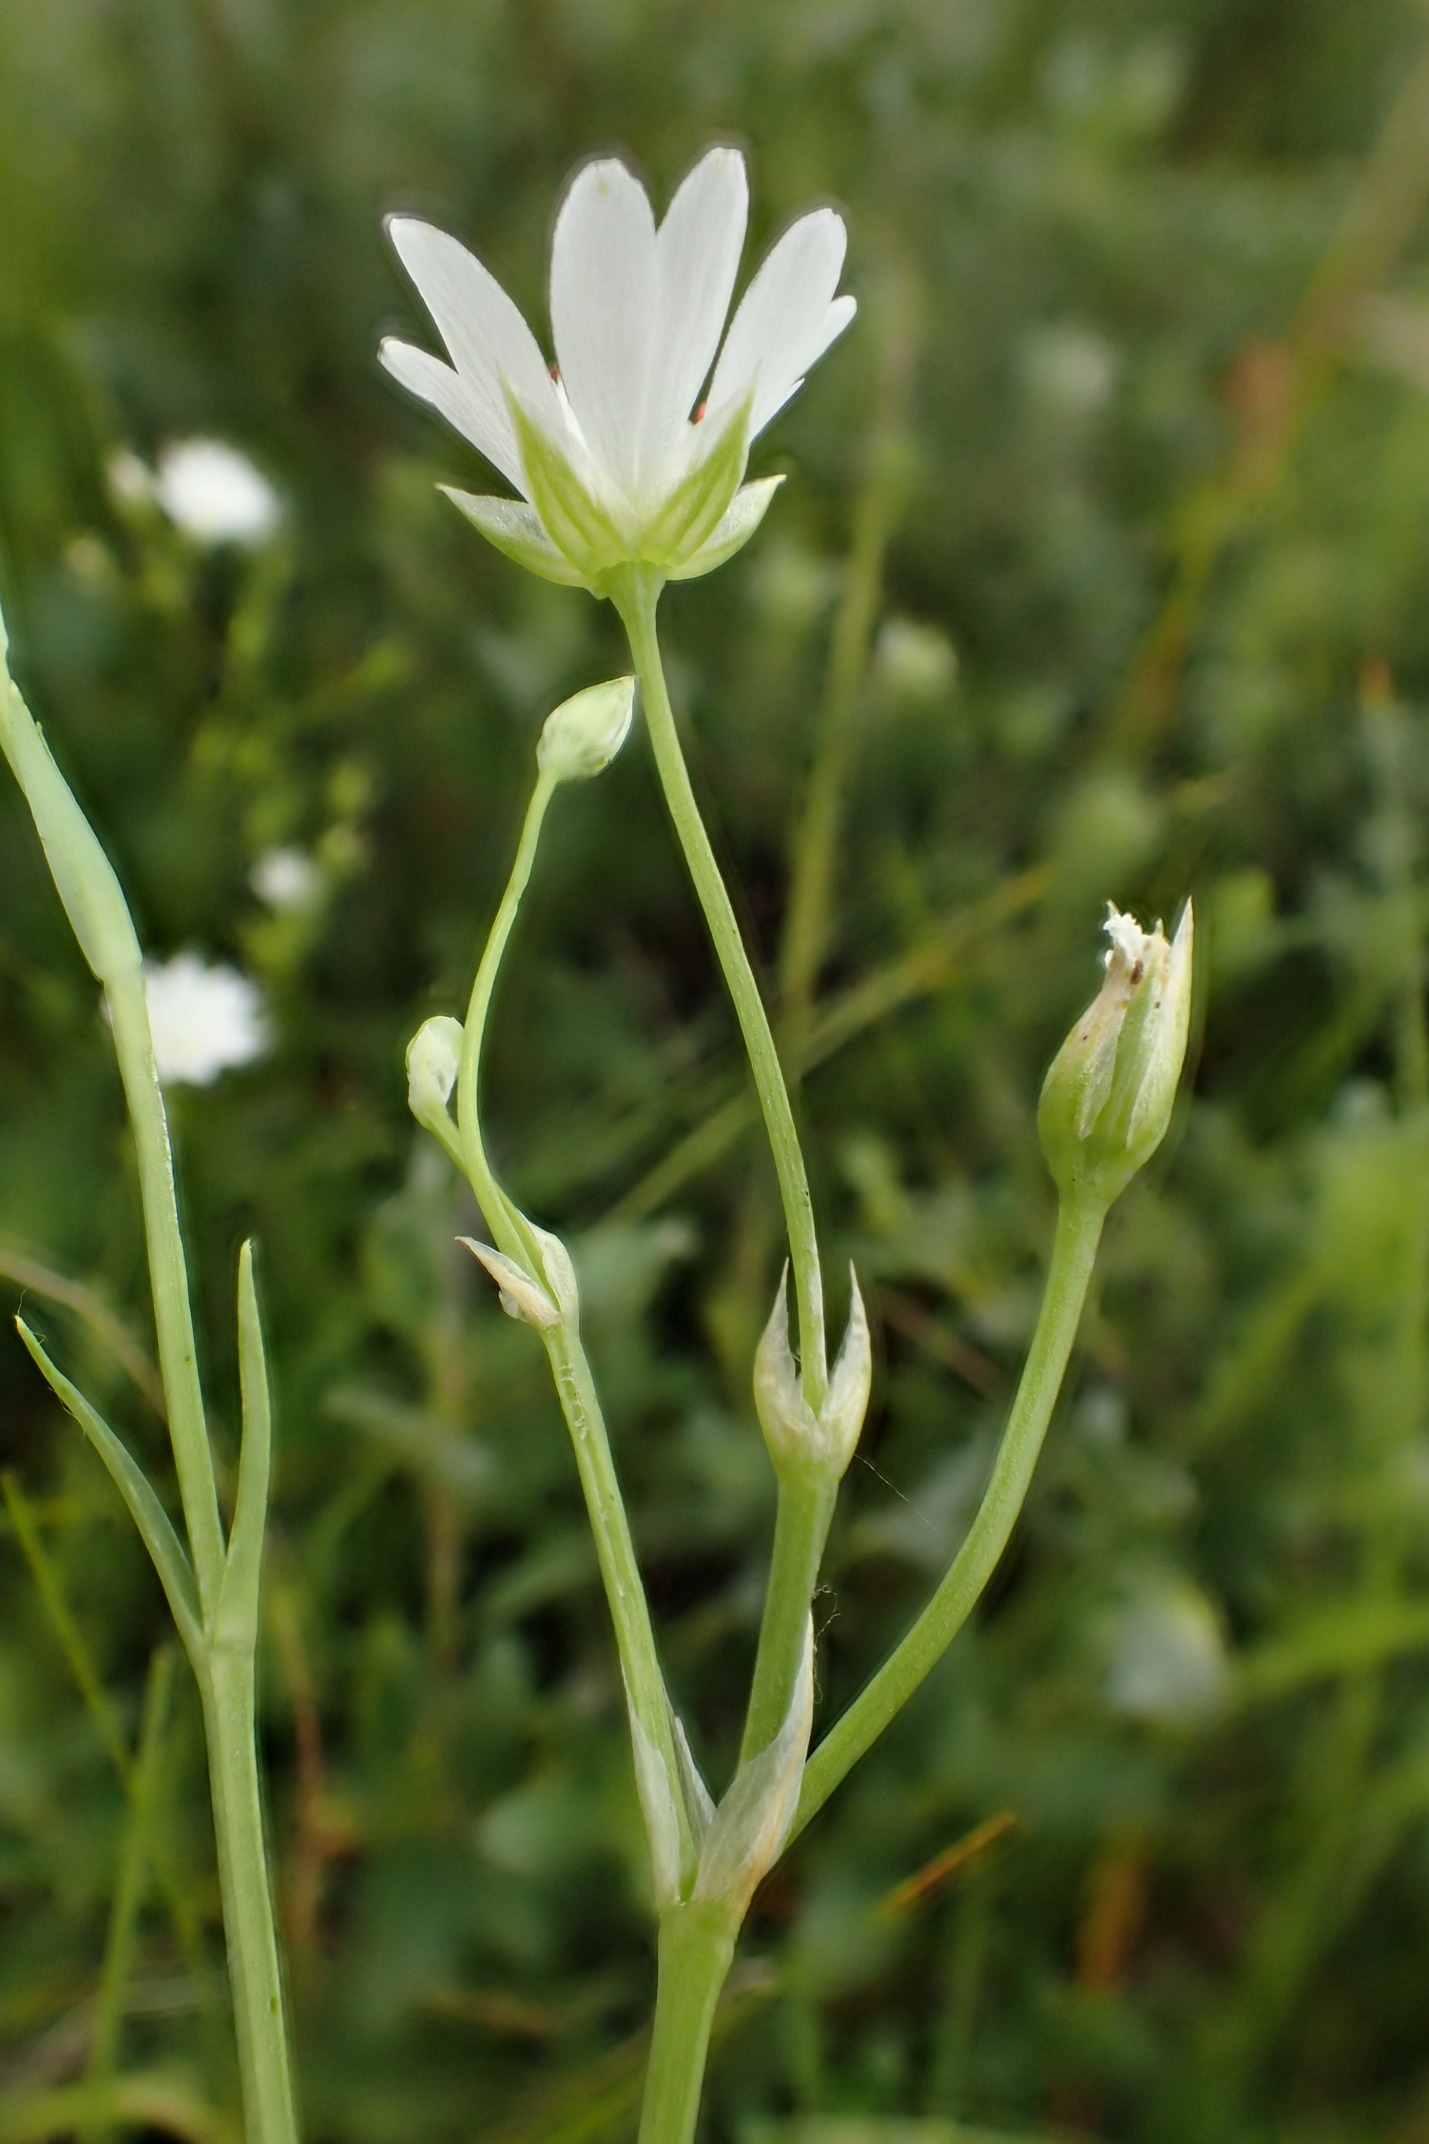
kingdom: Plantae
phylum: Tracheophyta
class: Magnoliopsida
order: Caryophyllales
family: Caryophyllaceae
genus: Stellaria
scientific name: Stellaria palustris
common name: Kær-fladstjerne
